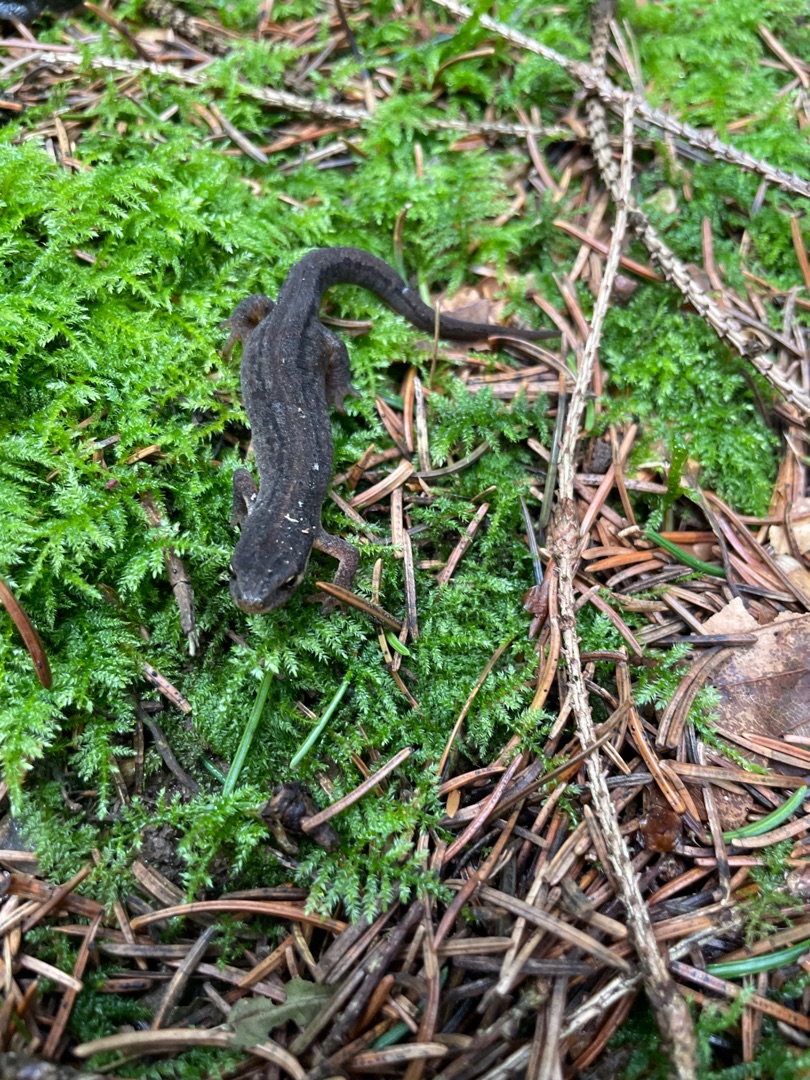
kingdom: Animalia
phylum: Chordata
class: Amphibia
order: Caudata
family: Salamandridae
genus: Lissotriton
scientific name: Lissotriton vulgaris
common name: Lille vandsalamander
